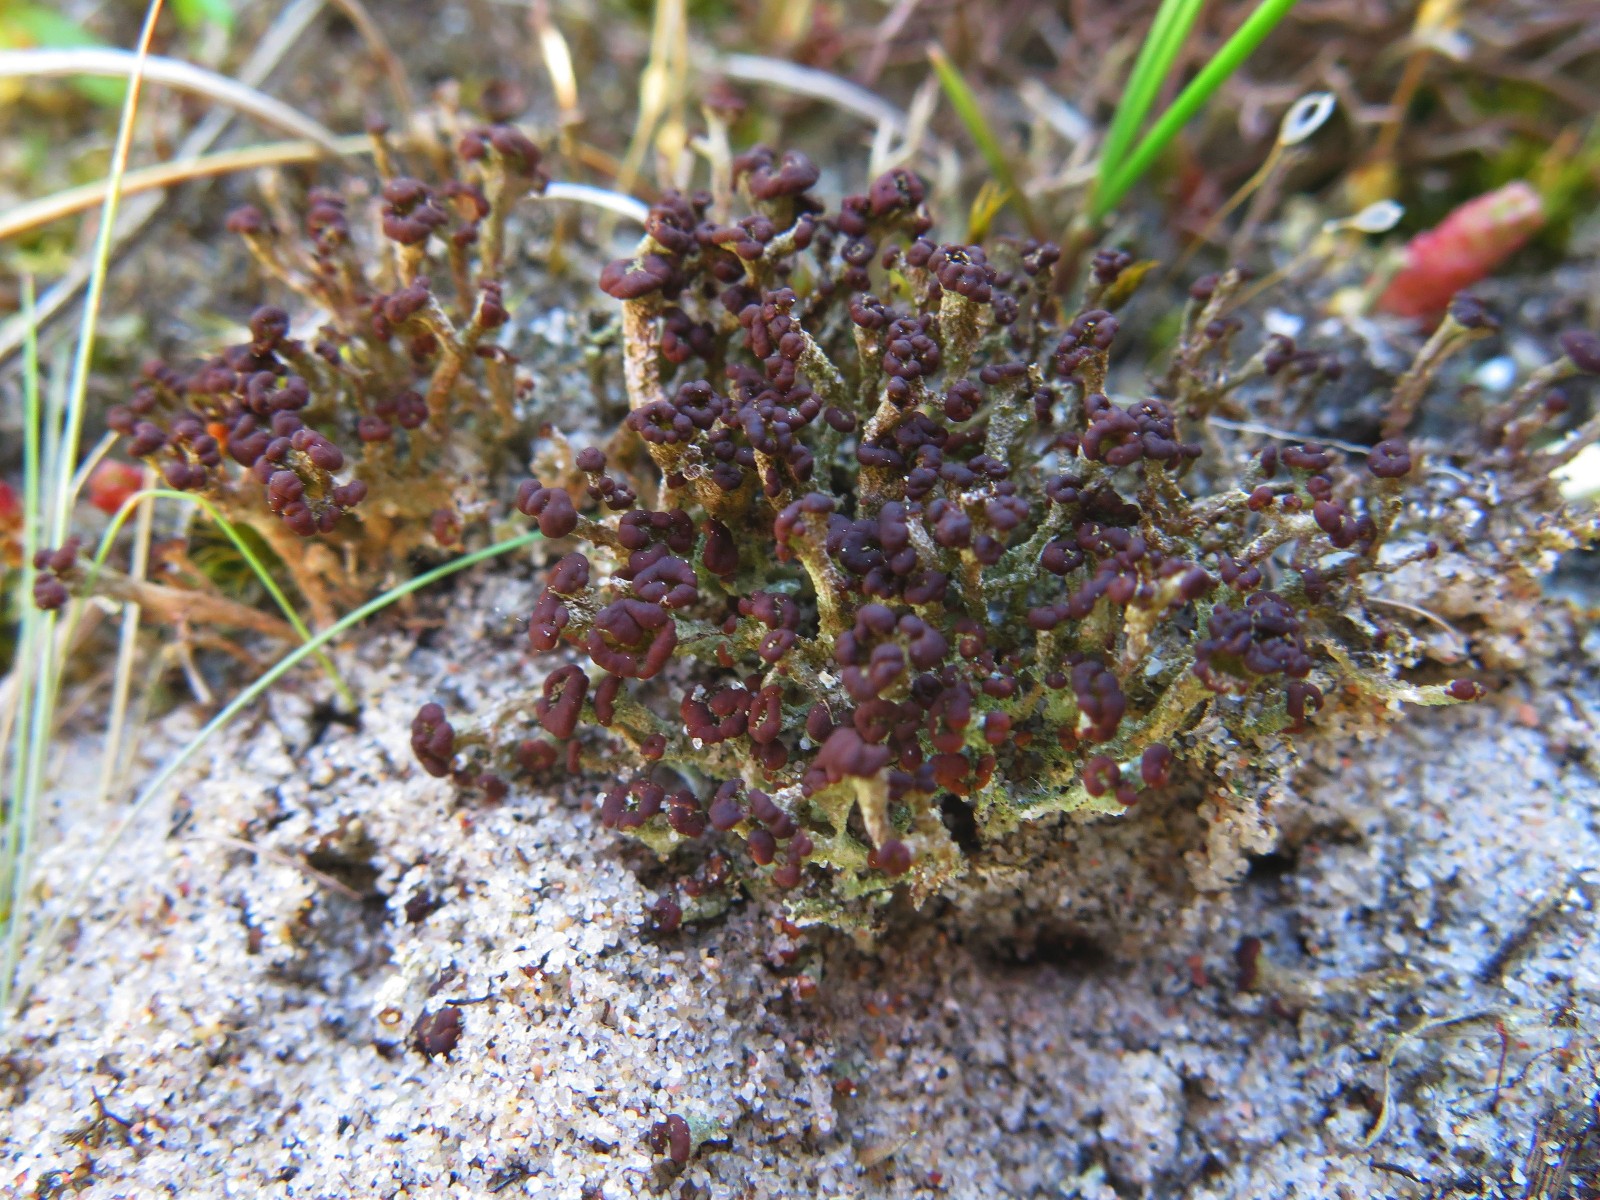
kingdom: Fungi
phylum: Ascomycota
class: Lecanoromycetes
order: Lecanorales
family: Cladoniaceae
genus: Cladonia
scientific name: Cladonia ramulosa
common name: kliddet bægerlav
